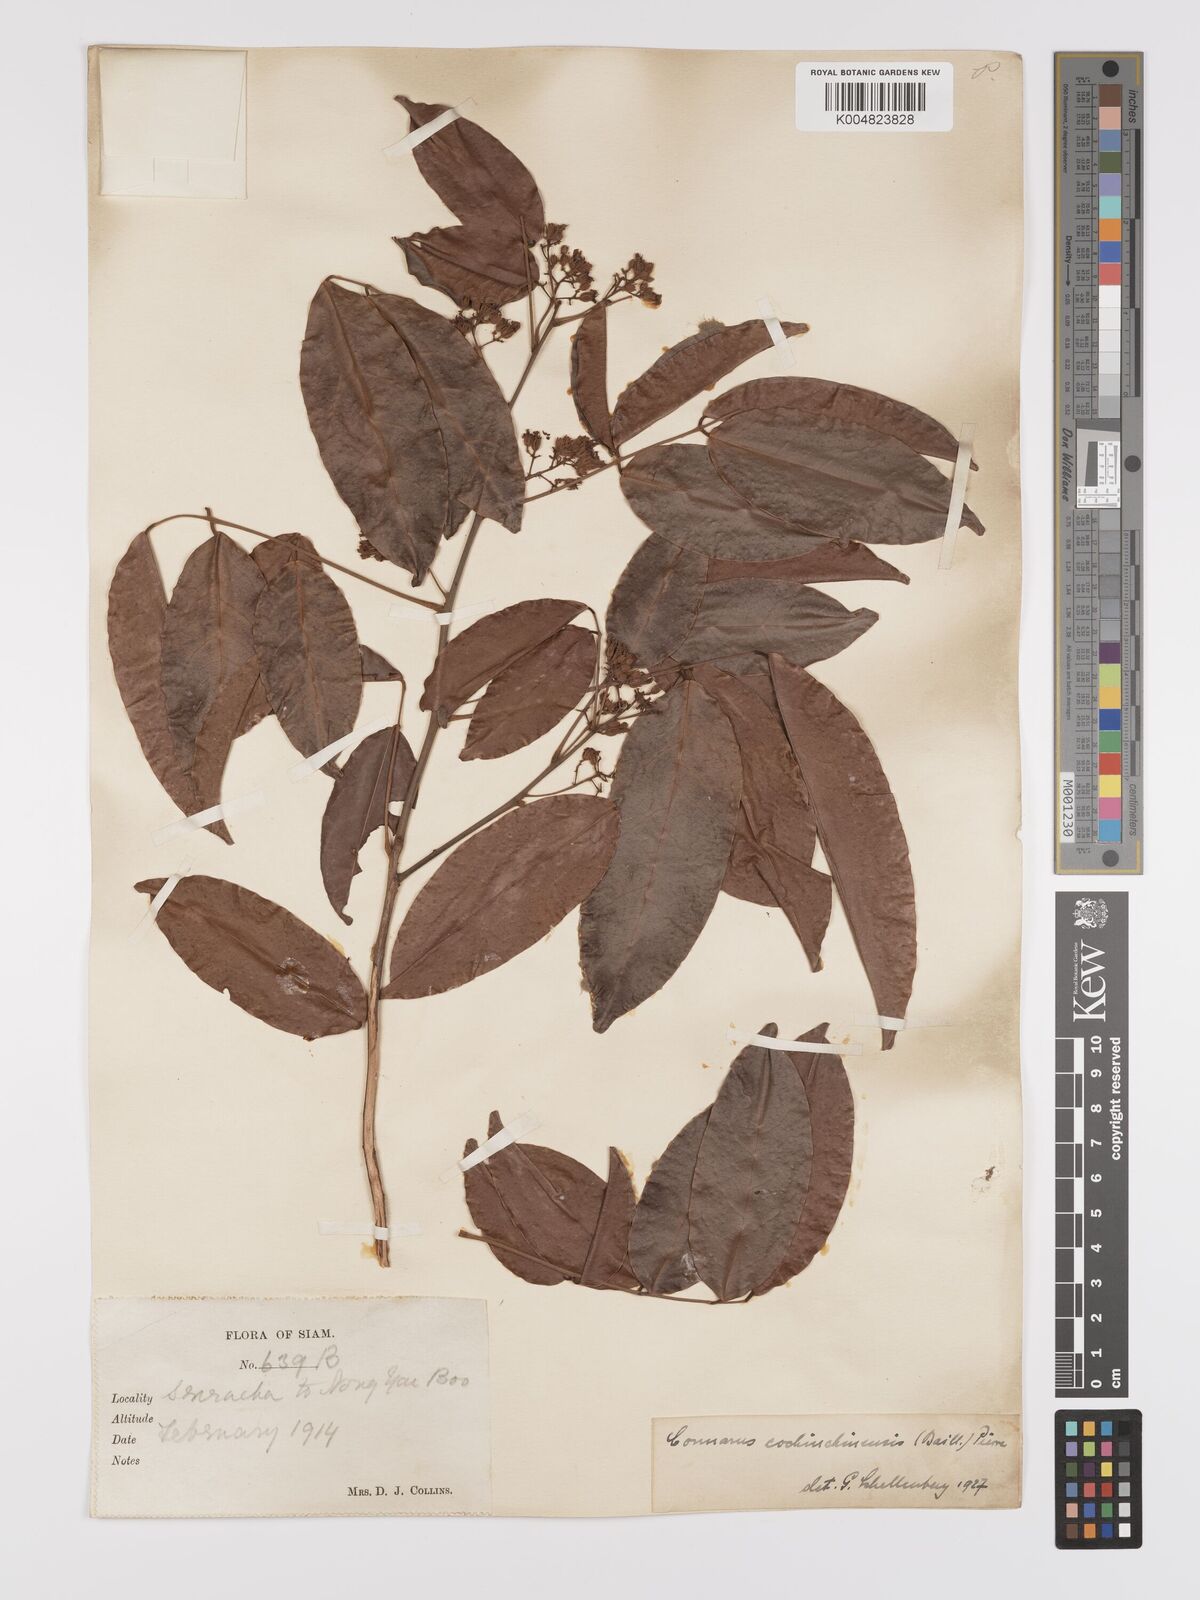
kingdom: Plantae
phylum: Tracheophyta
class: Magnoliopsida
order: Oxalidales
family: Connaraceae
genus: Connarus
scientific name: Connarus cochinchinensis
